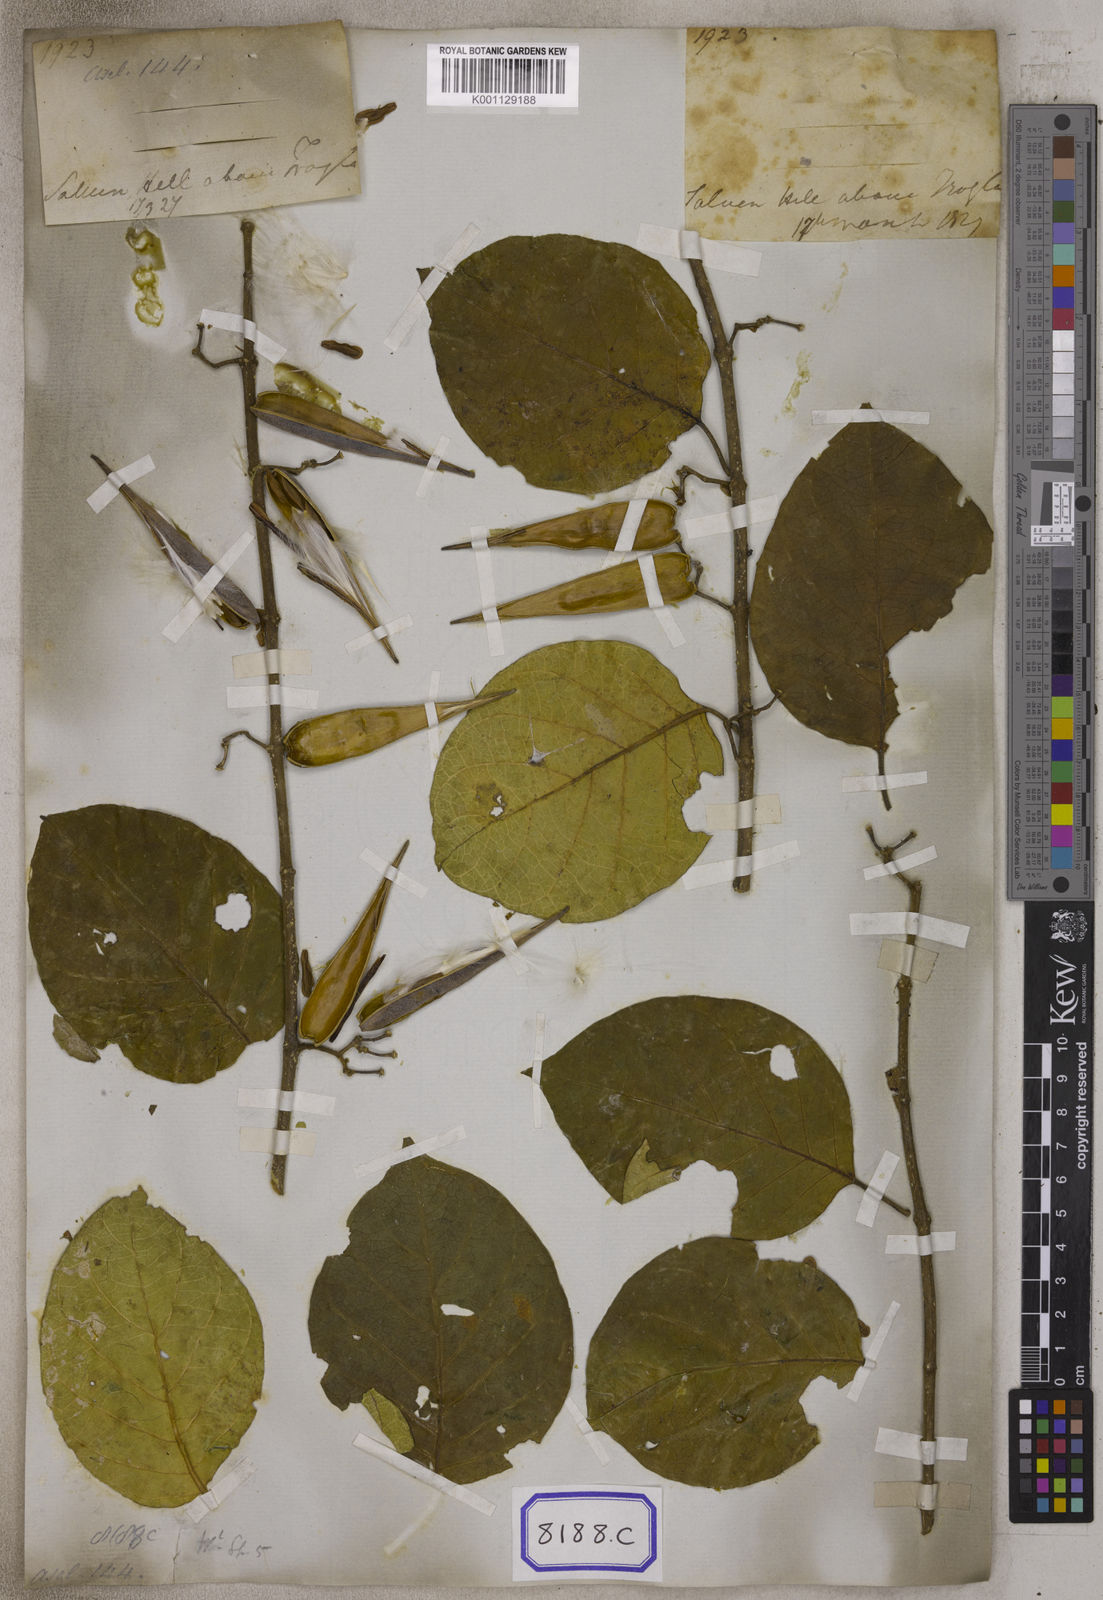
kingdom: Plantae
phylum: Tracheophyta
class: Magnoliopsida
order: Gentianales
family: Apocynaceae
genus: Gymnema
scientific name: Gymnema latifolium
